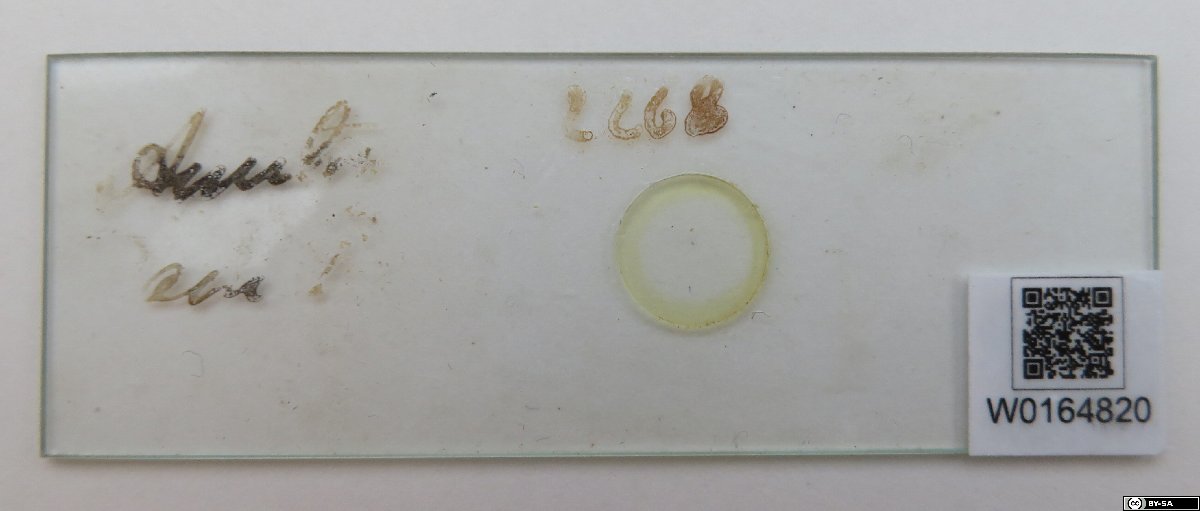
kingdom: Chromista
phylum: Ochrophyta
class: Bacillariophyceae
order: Achnanthales
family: Achnanthaceae
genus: Achnanthes
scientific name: Achnanthes intermedia
